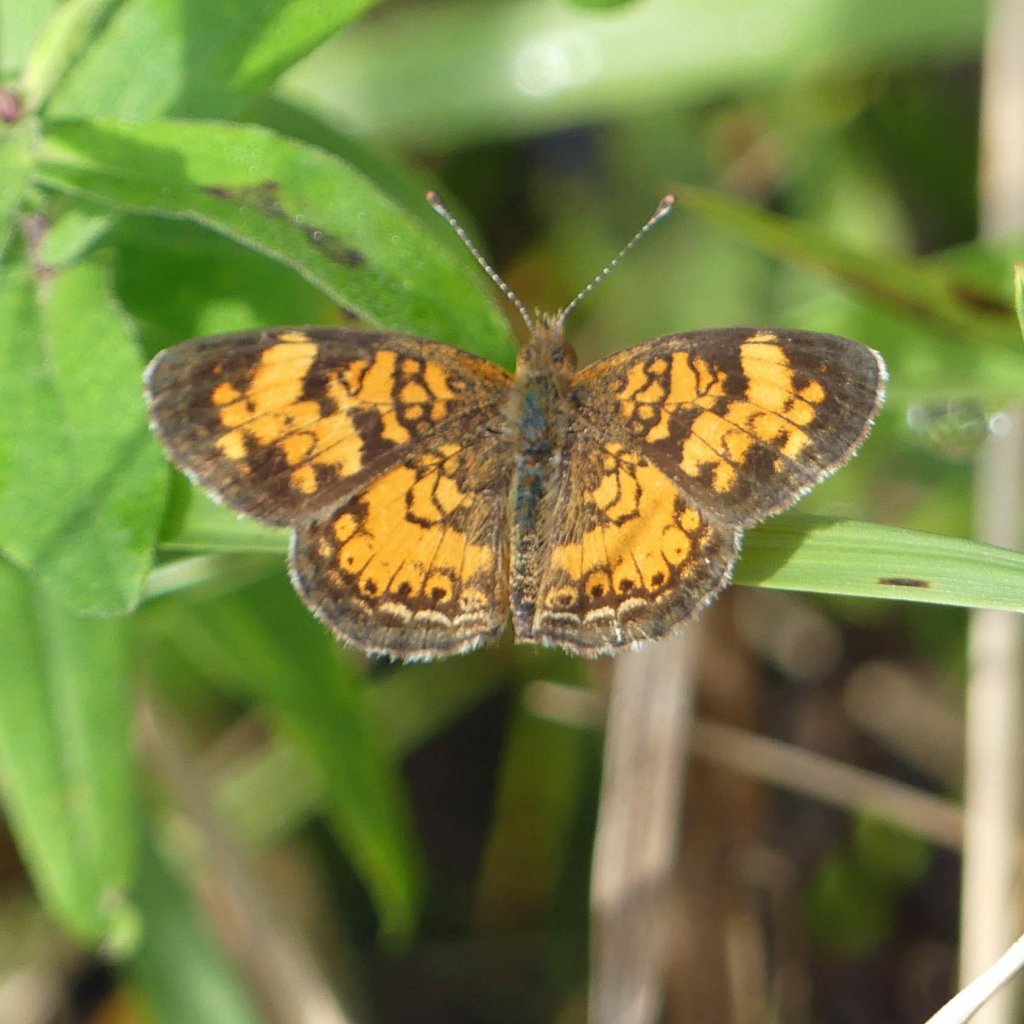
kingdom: Animalia
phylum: Arthropoda
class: Insecta
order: Lepidoptera
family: Nymphalidae
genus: Phyciodes
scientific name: Phyciodes tharos
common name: Northern Crescent
